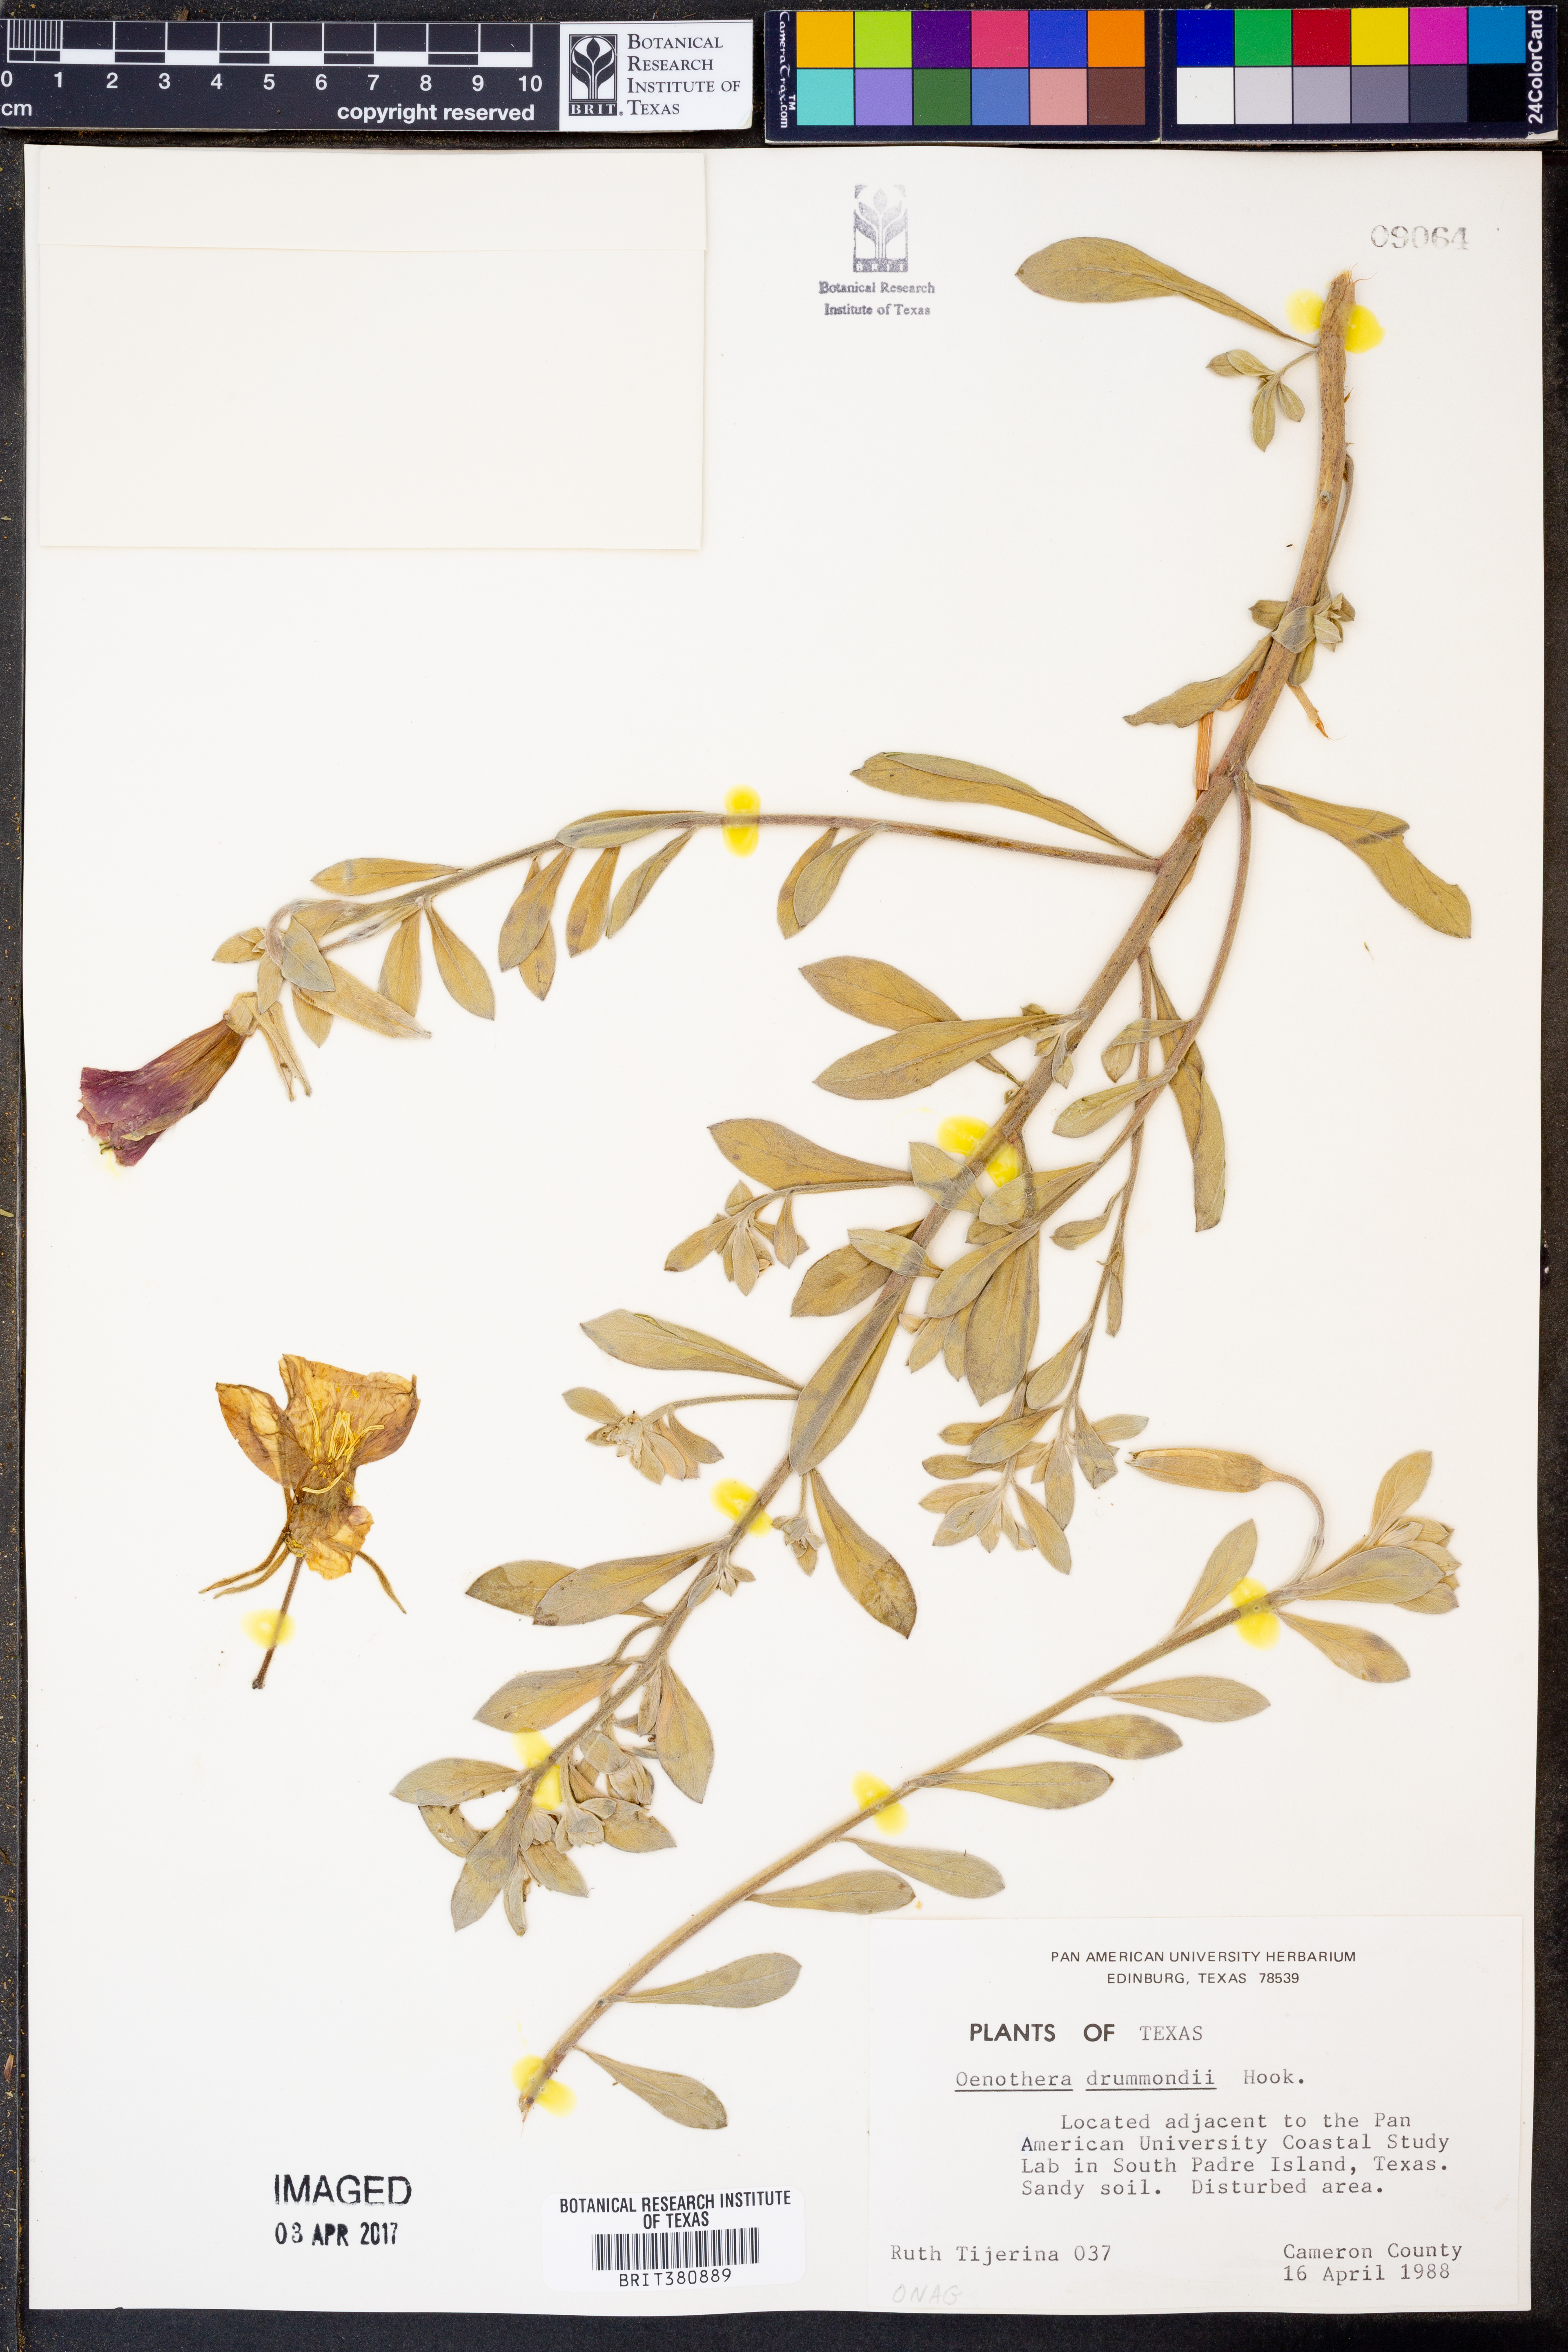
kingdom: Plantae
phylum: Tracheophyta
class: Magnoliopsida
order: Myrtales
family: Onagraceae
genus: Oenothera
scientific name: Oenothera drummondii
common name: Beach evening-primrose
